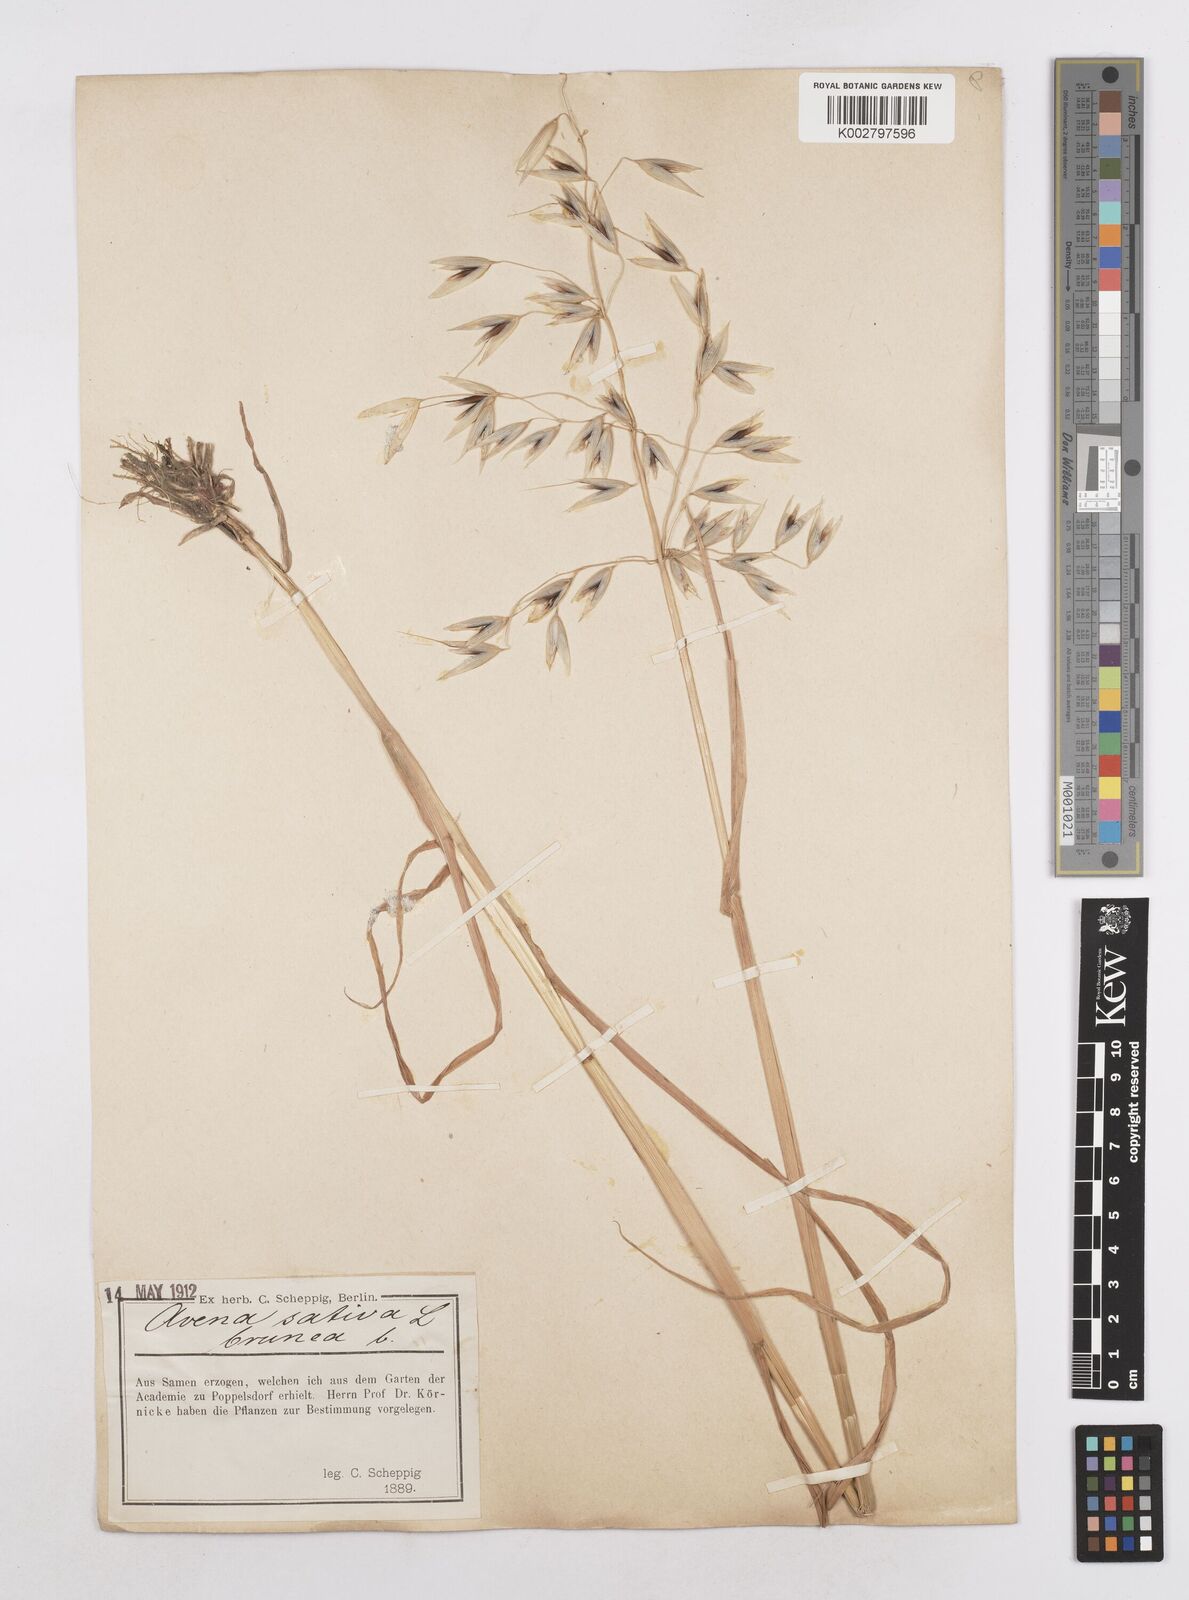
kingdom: Plantae
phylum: Tracheophyta
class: Liliopsida
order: Poales
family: Poaceae
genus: Avena
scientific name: Avena sativa
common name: Oat
